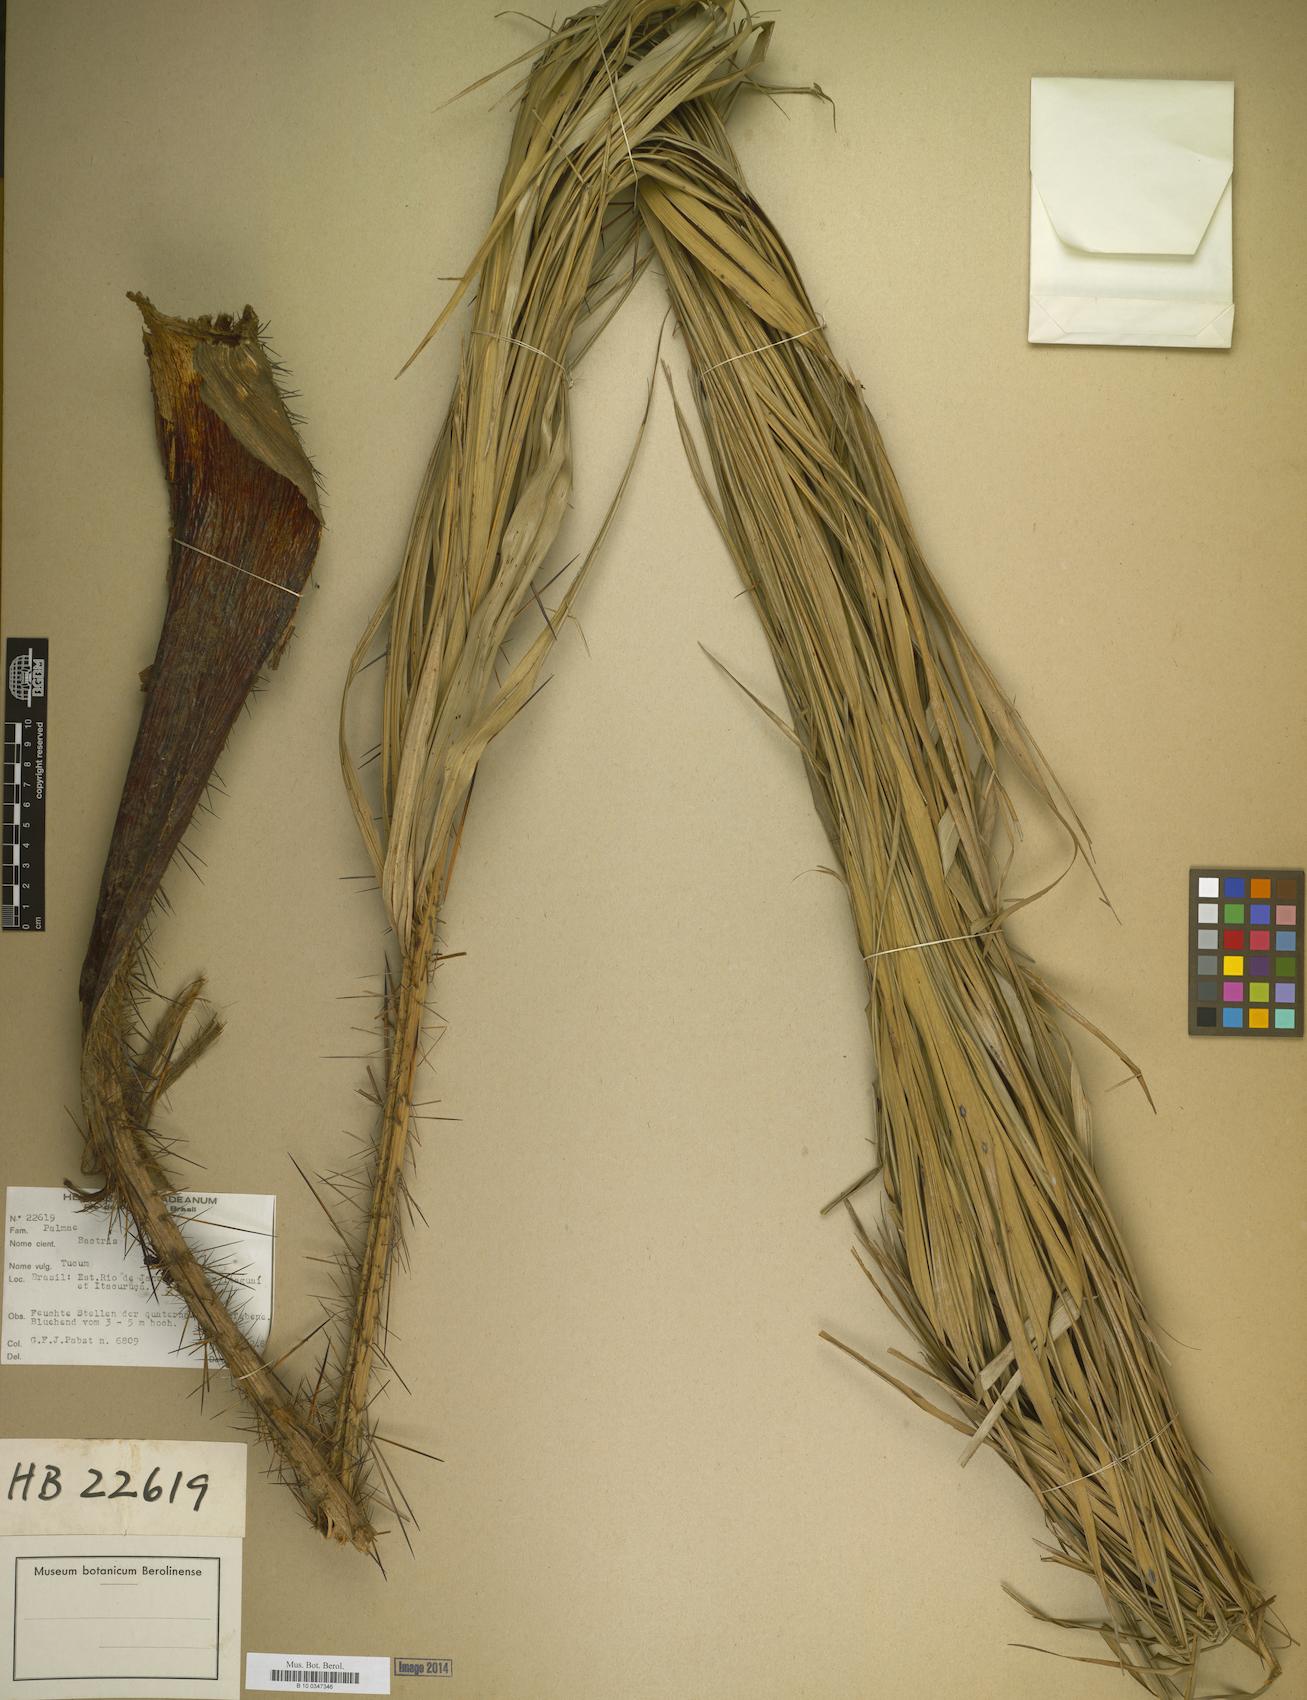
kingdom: Plantae
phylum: Tracheophyta
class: Liliopsida
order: Arecales
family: Arecaceae
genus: Bactris
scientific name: Bactris
